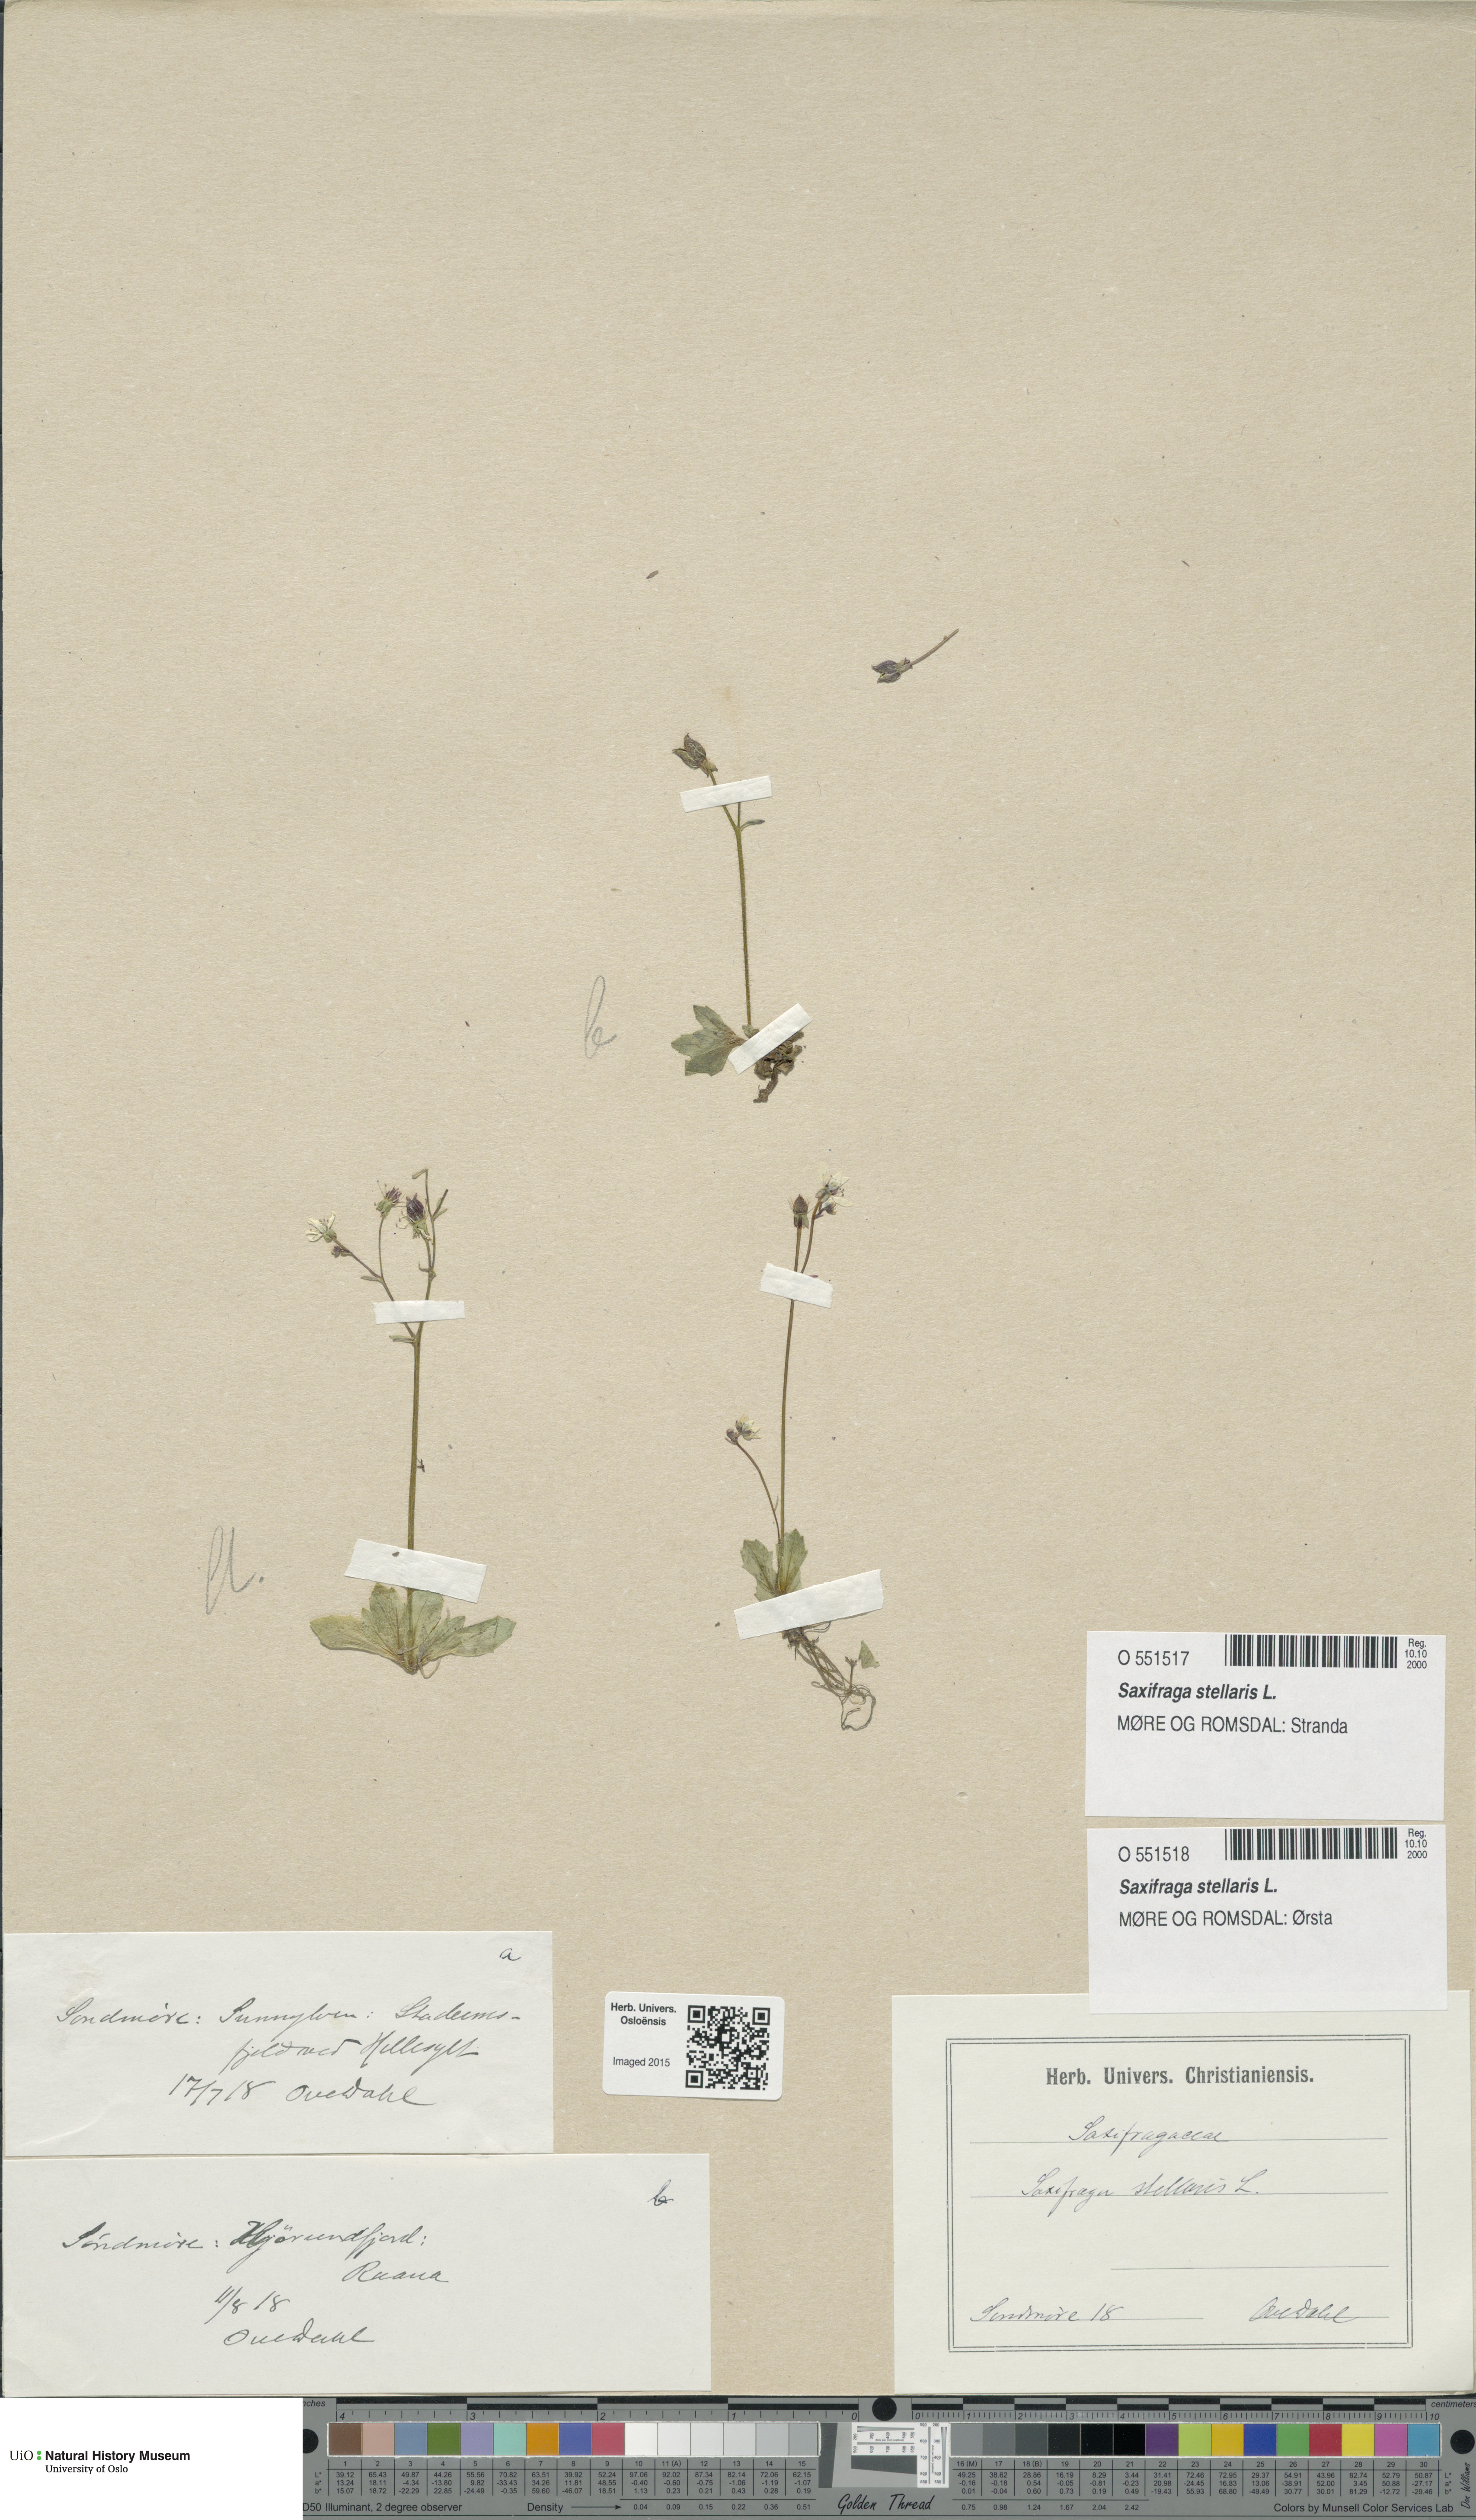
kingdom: Plantae
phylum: Tracheophyta
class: Magnoliopsida
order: Saxifragales
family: Saxifragaceae
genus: Micranthes
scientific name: Micranthes stellaris
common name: Starry saxifrage
